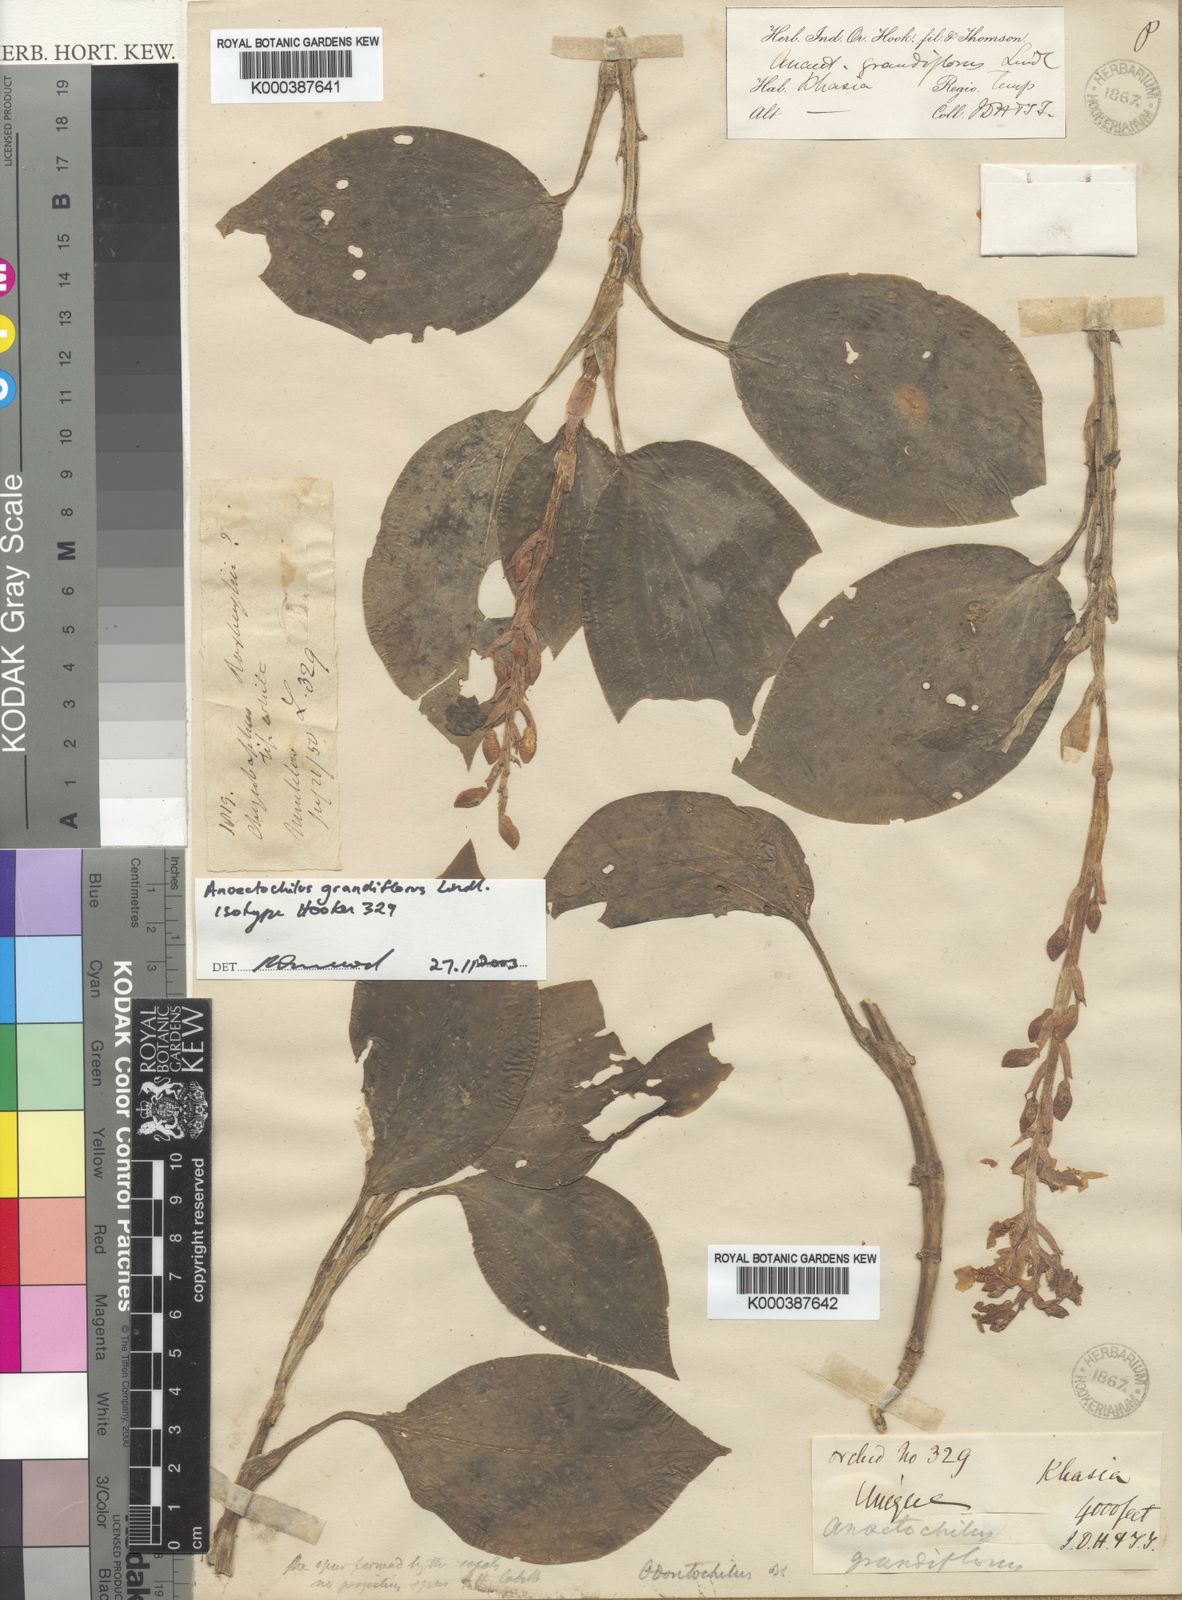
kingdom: Plantae
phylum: Tracheophyta
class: Liliopsida
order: Asparagales
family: Orchidaceae
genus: Odontochilus
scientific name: Odontochilus grandiflorus
